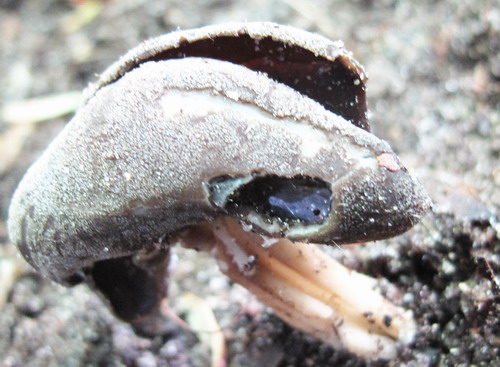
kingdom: Fungi
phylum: Ascomycota
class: Pezizomycetes
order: Pezizales
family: Helvellaceae
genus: Helvella
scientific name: Helvella solitaria
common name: Quélets foldhat
